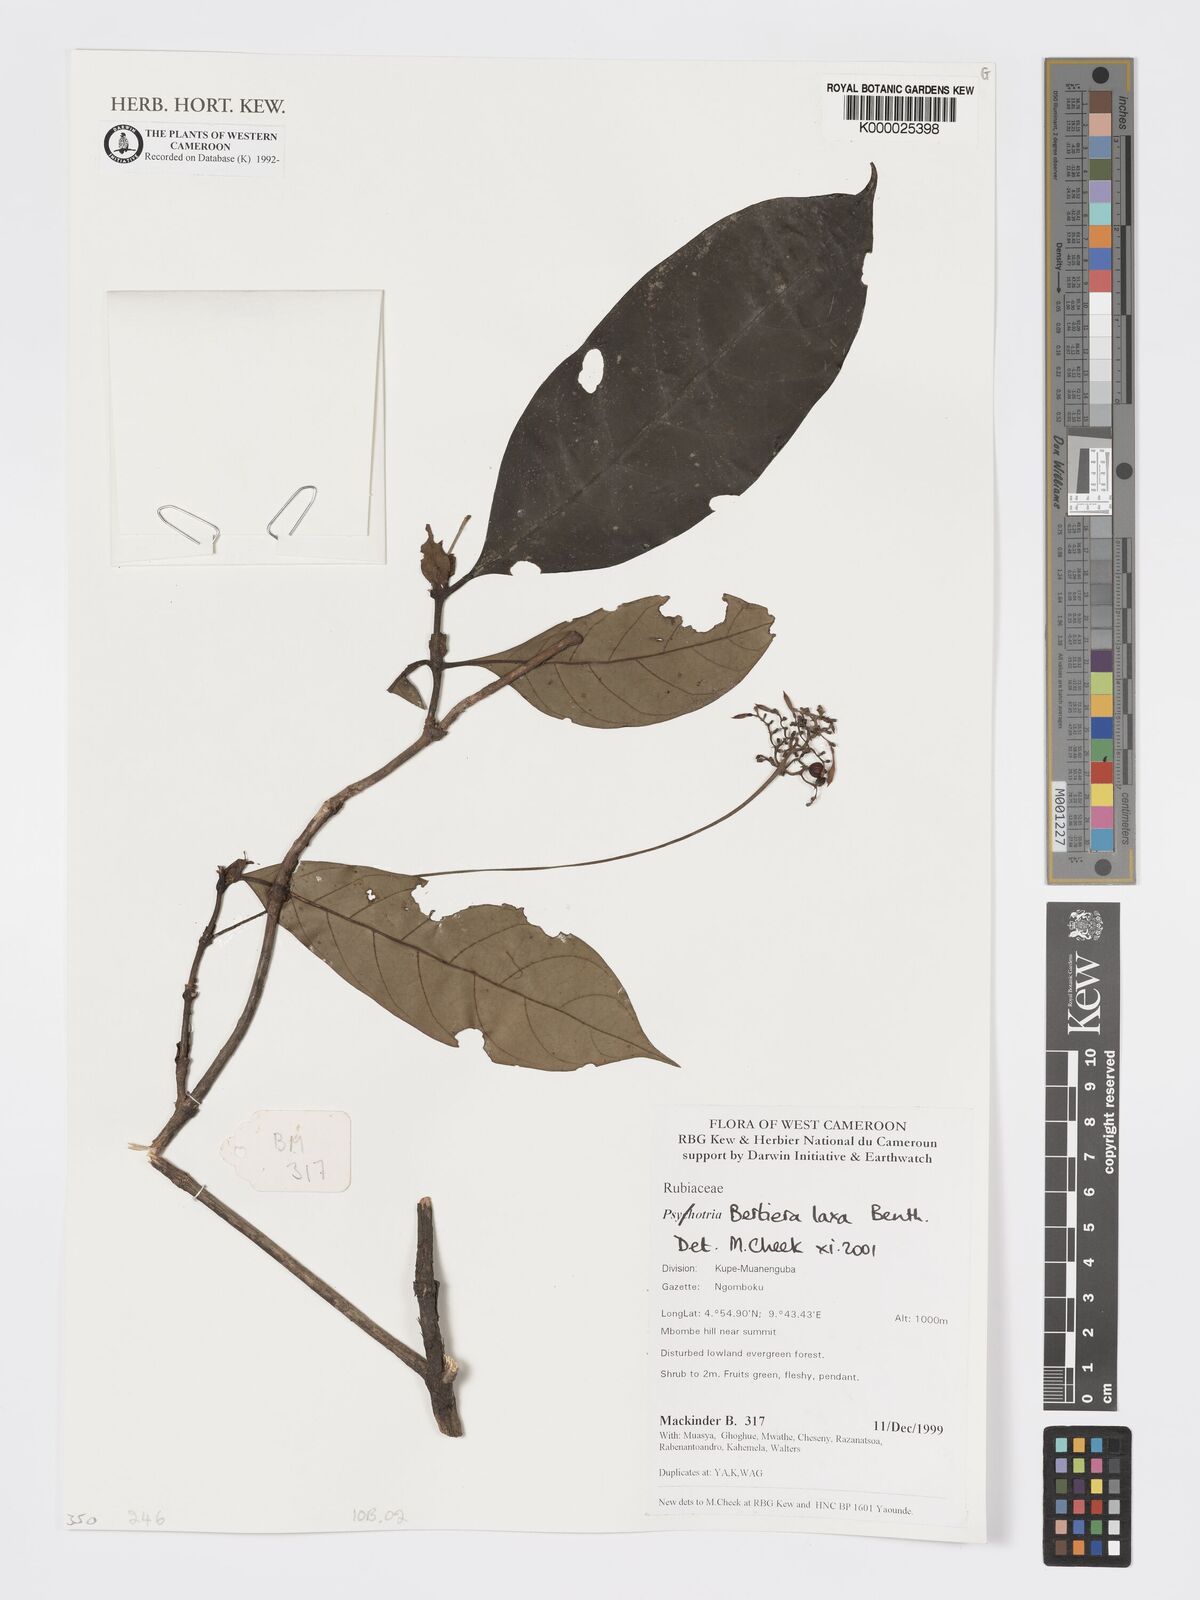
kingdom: Plantae
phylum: Tracheophyta
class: Magnoliopsida
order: Gentianales
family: Rubiaceae
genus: Bertiera
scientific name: Bertiera laxa
